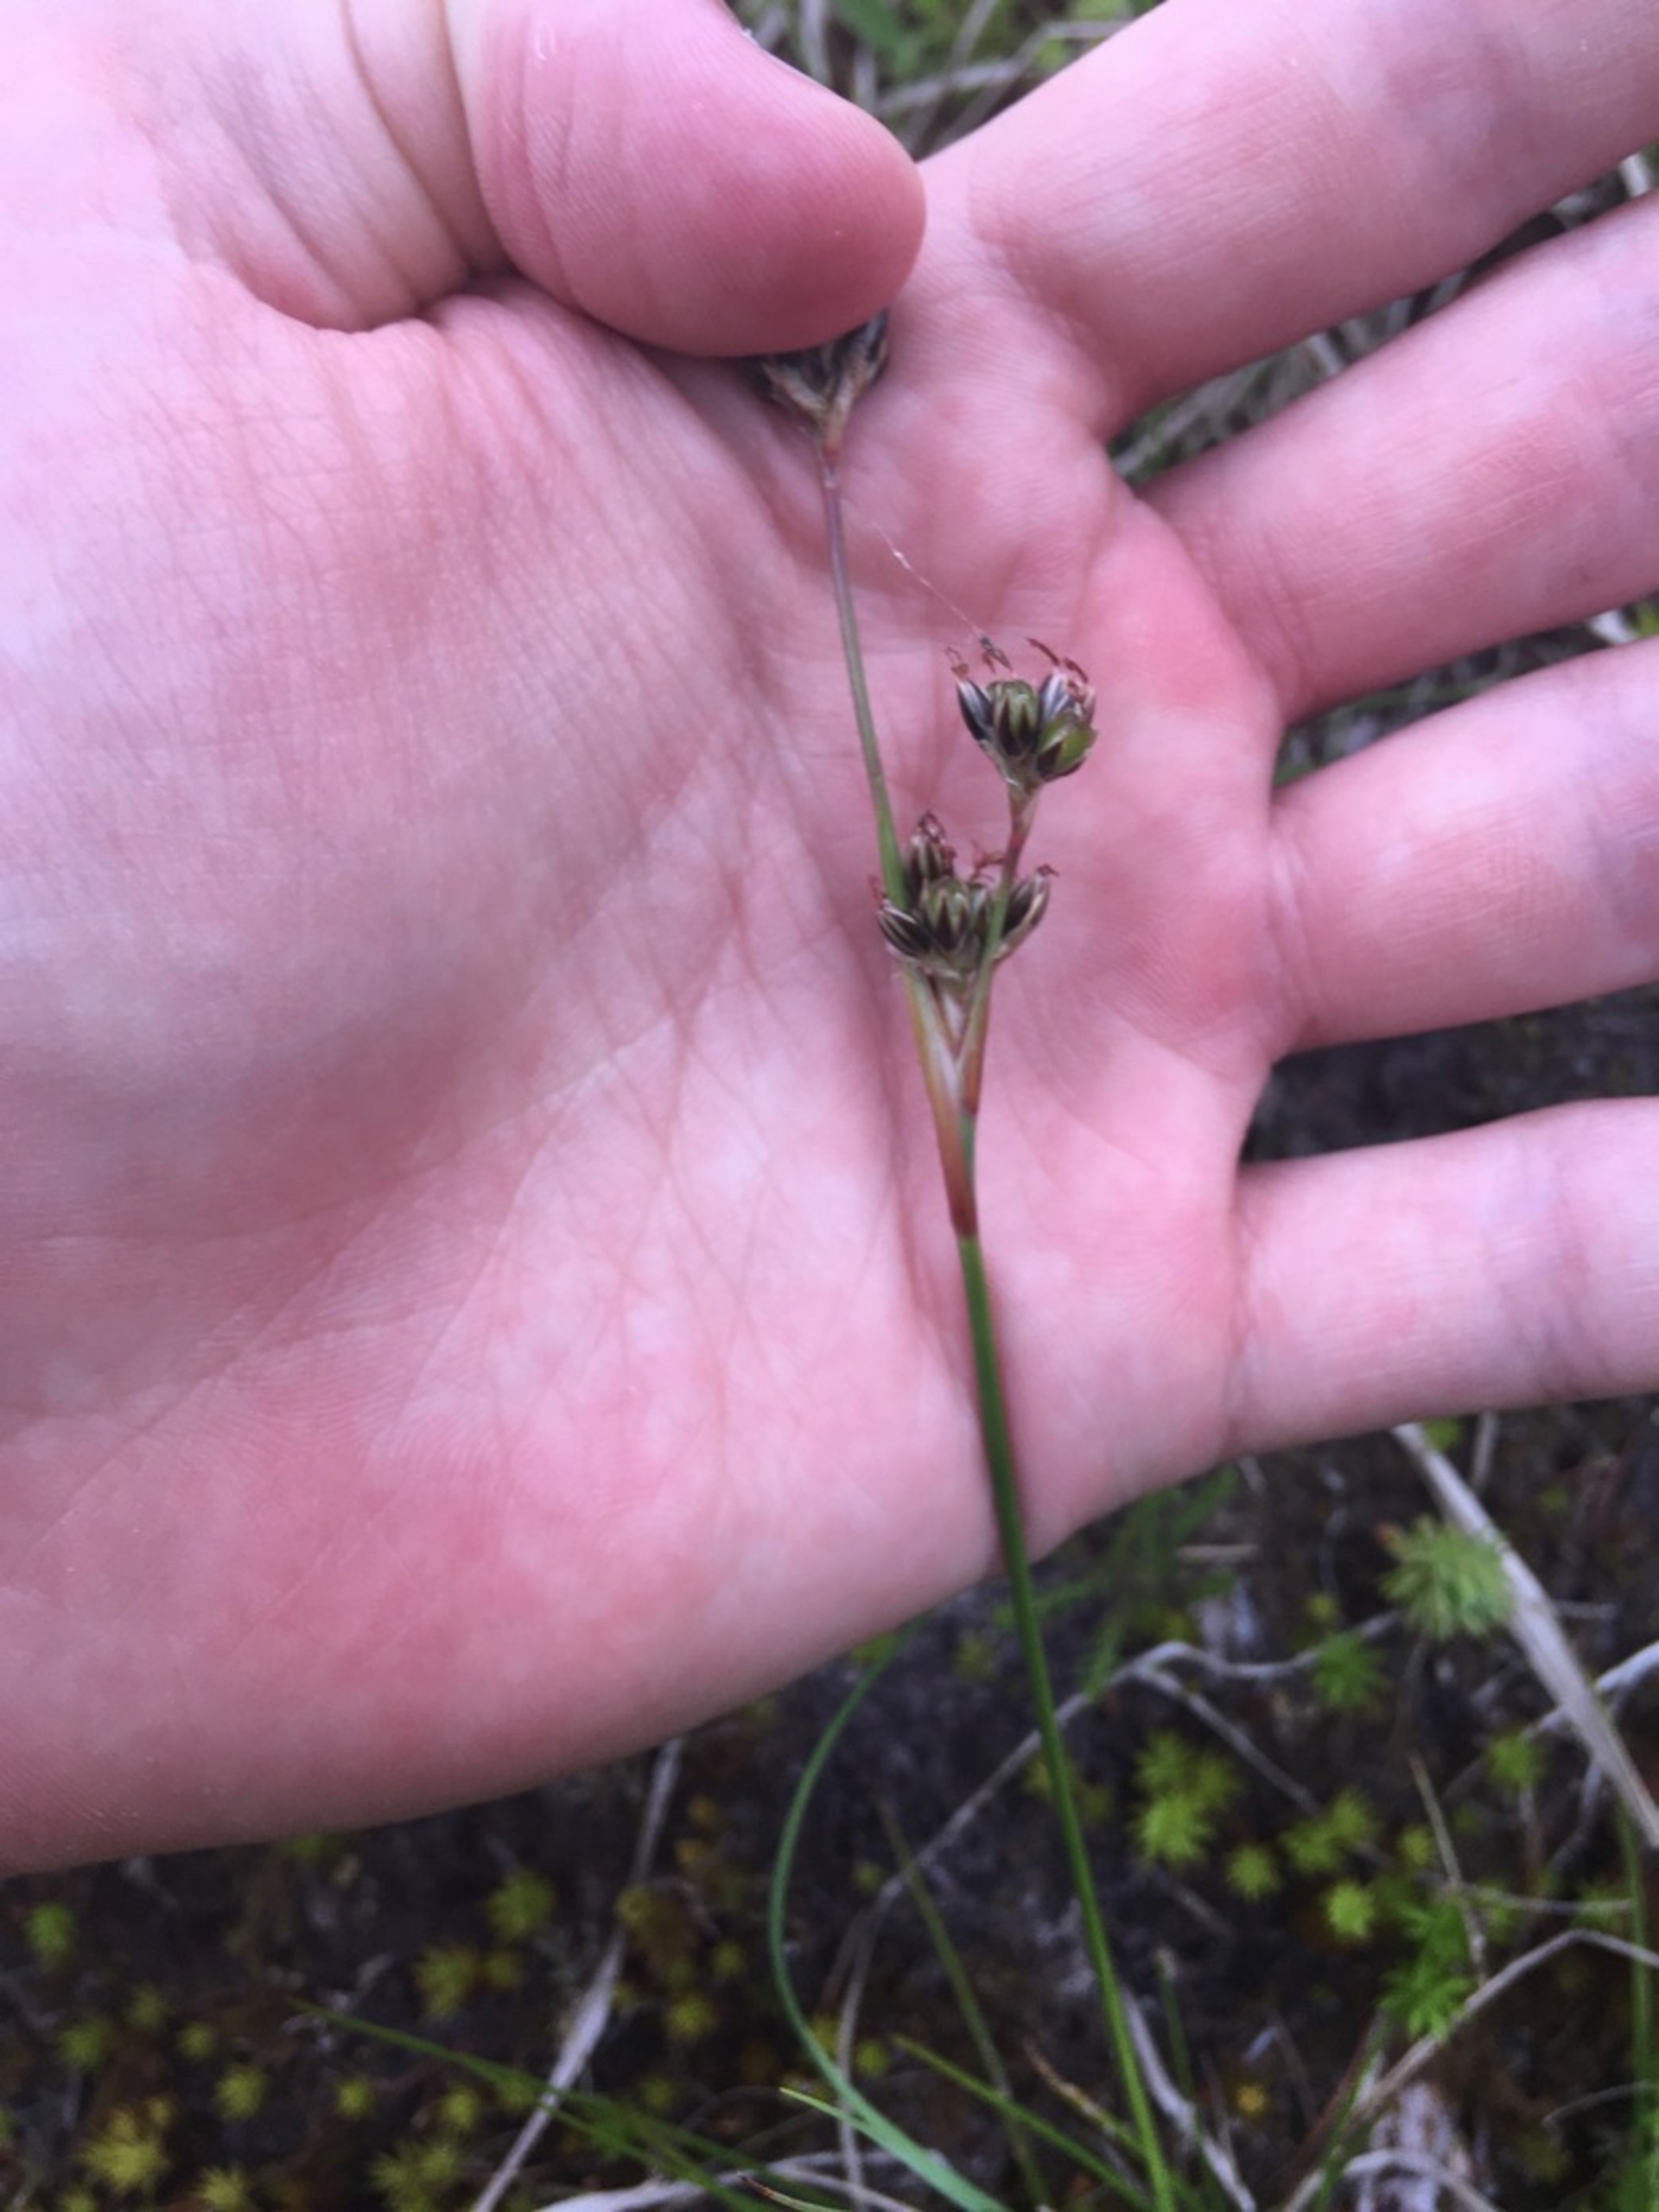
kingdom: Plantae
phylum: Tracheophyta
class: Liliopsida
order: Poales
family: Juncaceae
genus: Juncus
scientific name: Juncus squarrosus
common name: Børste-siv
